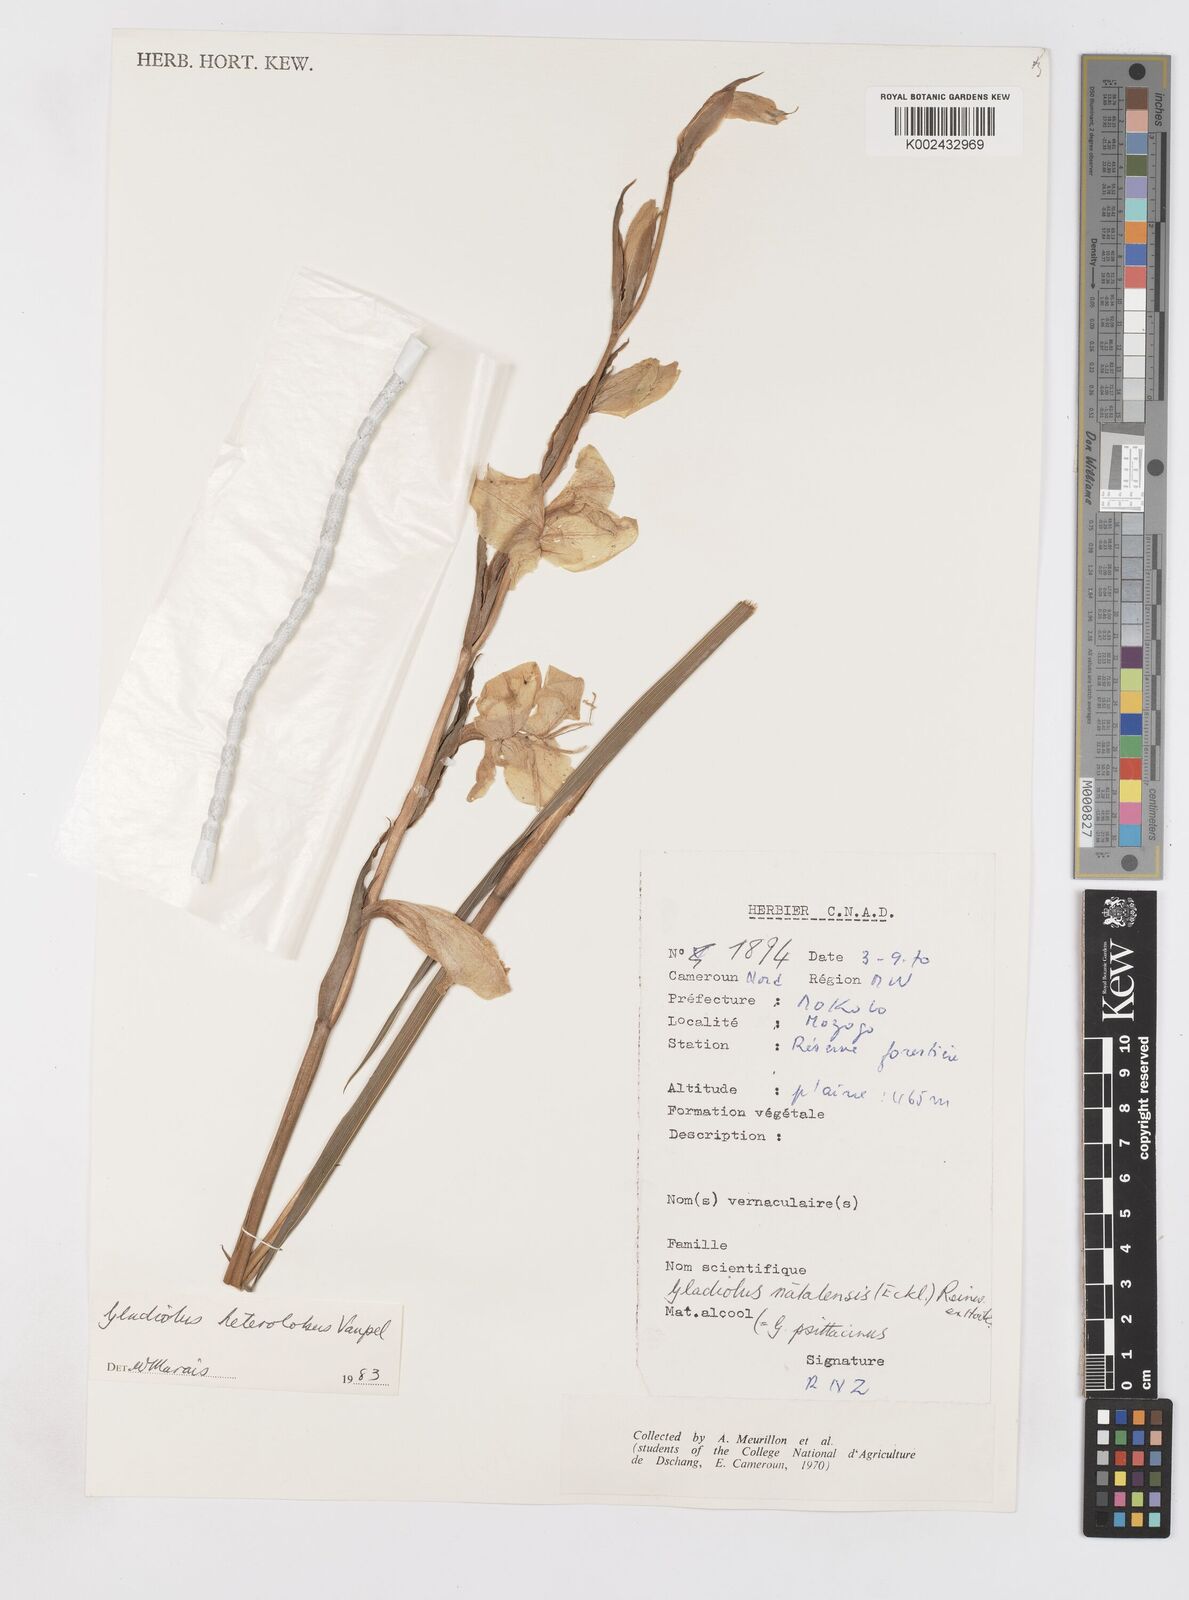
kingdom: Plantae
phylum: Tracheophyta
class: Liliopsida
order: Asparagales
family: Iridaceae
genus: Gladiolus
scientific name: Gladiolus roseolus
